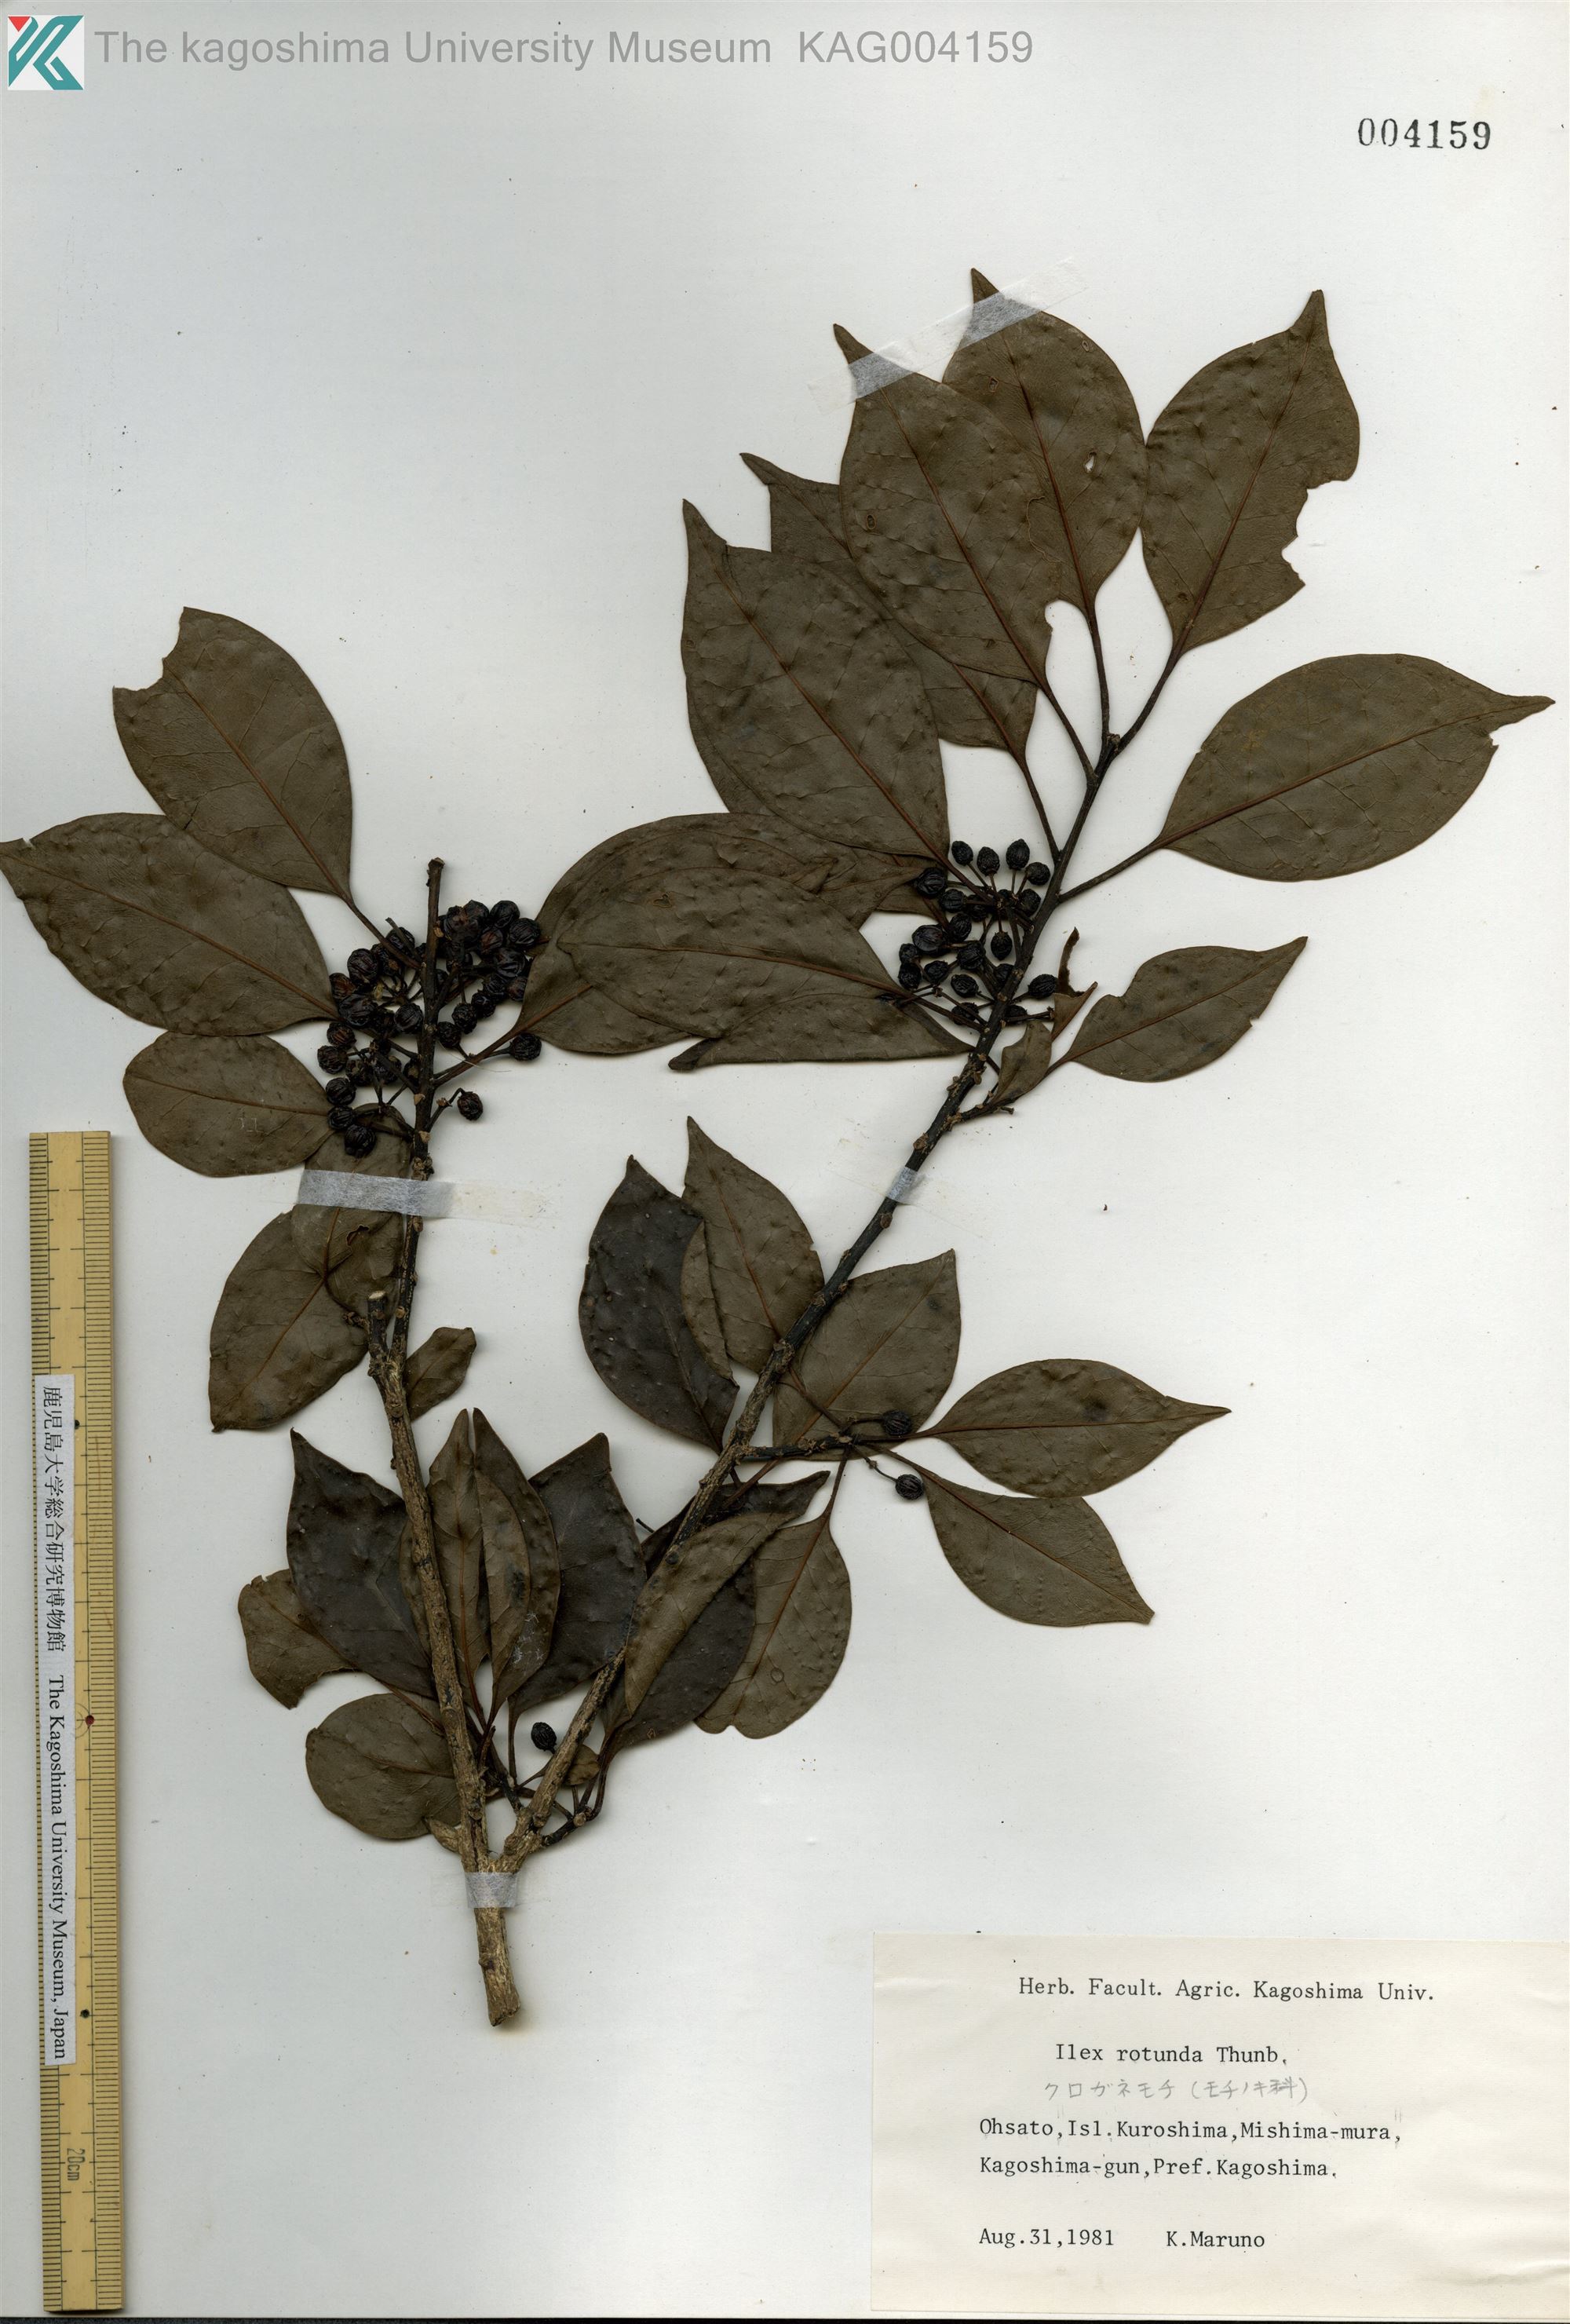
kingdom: Plantae
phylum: Tracheophyta
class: Magnoliopsida
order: Aquifoliales
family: Aquifoliaceae
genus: Ilex
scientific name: Ilex rotunda
